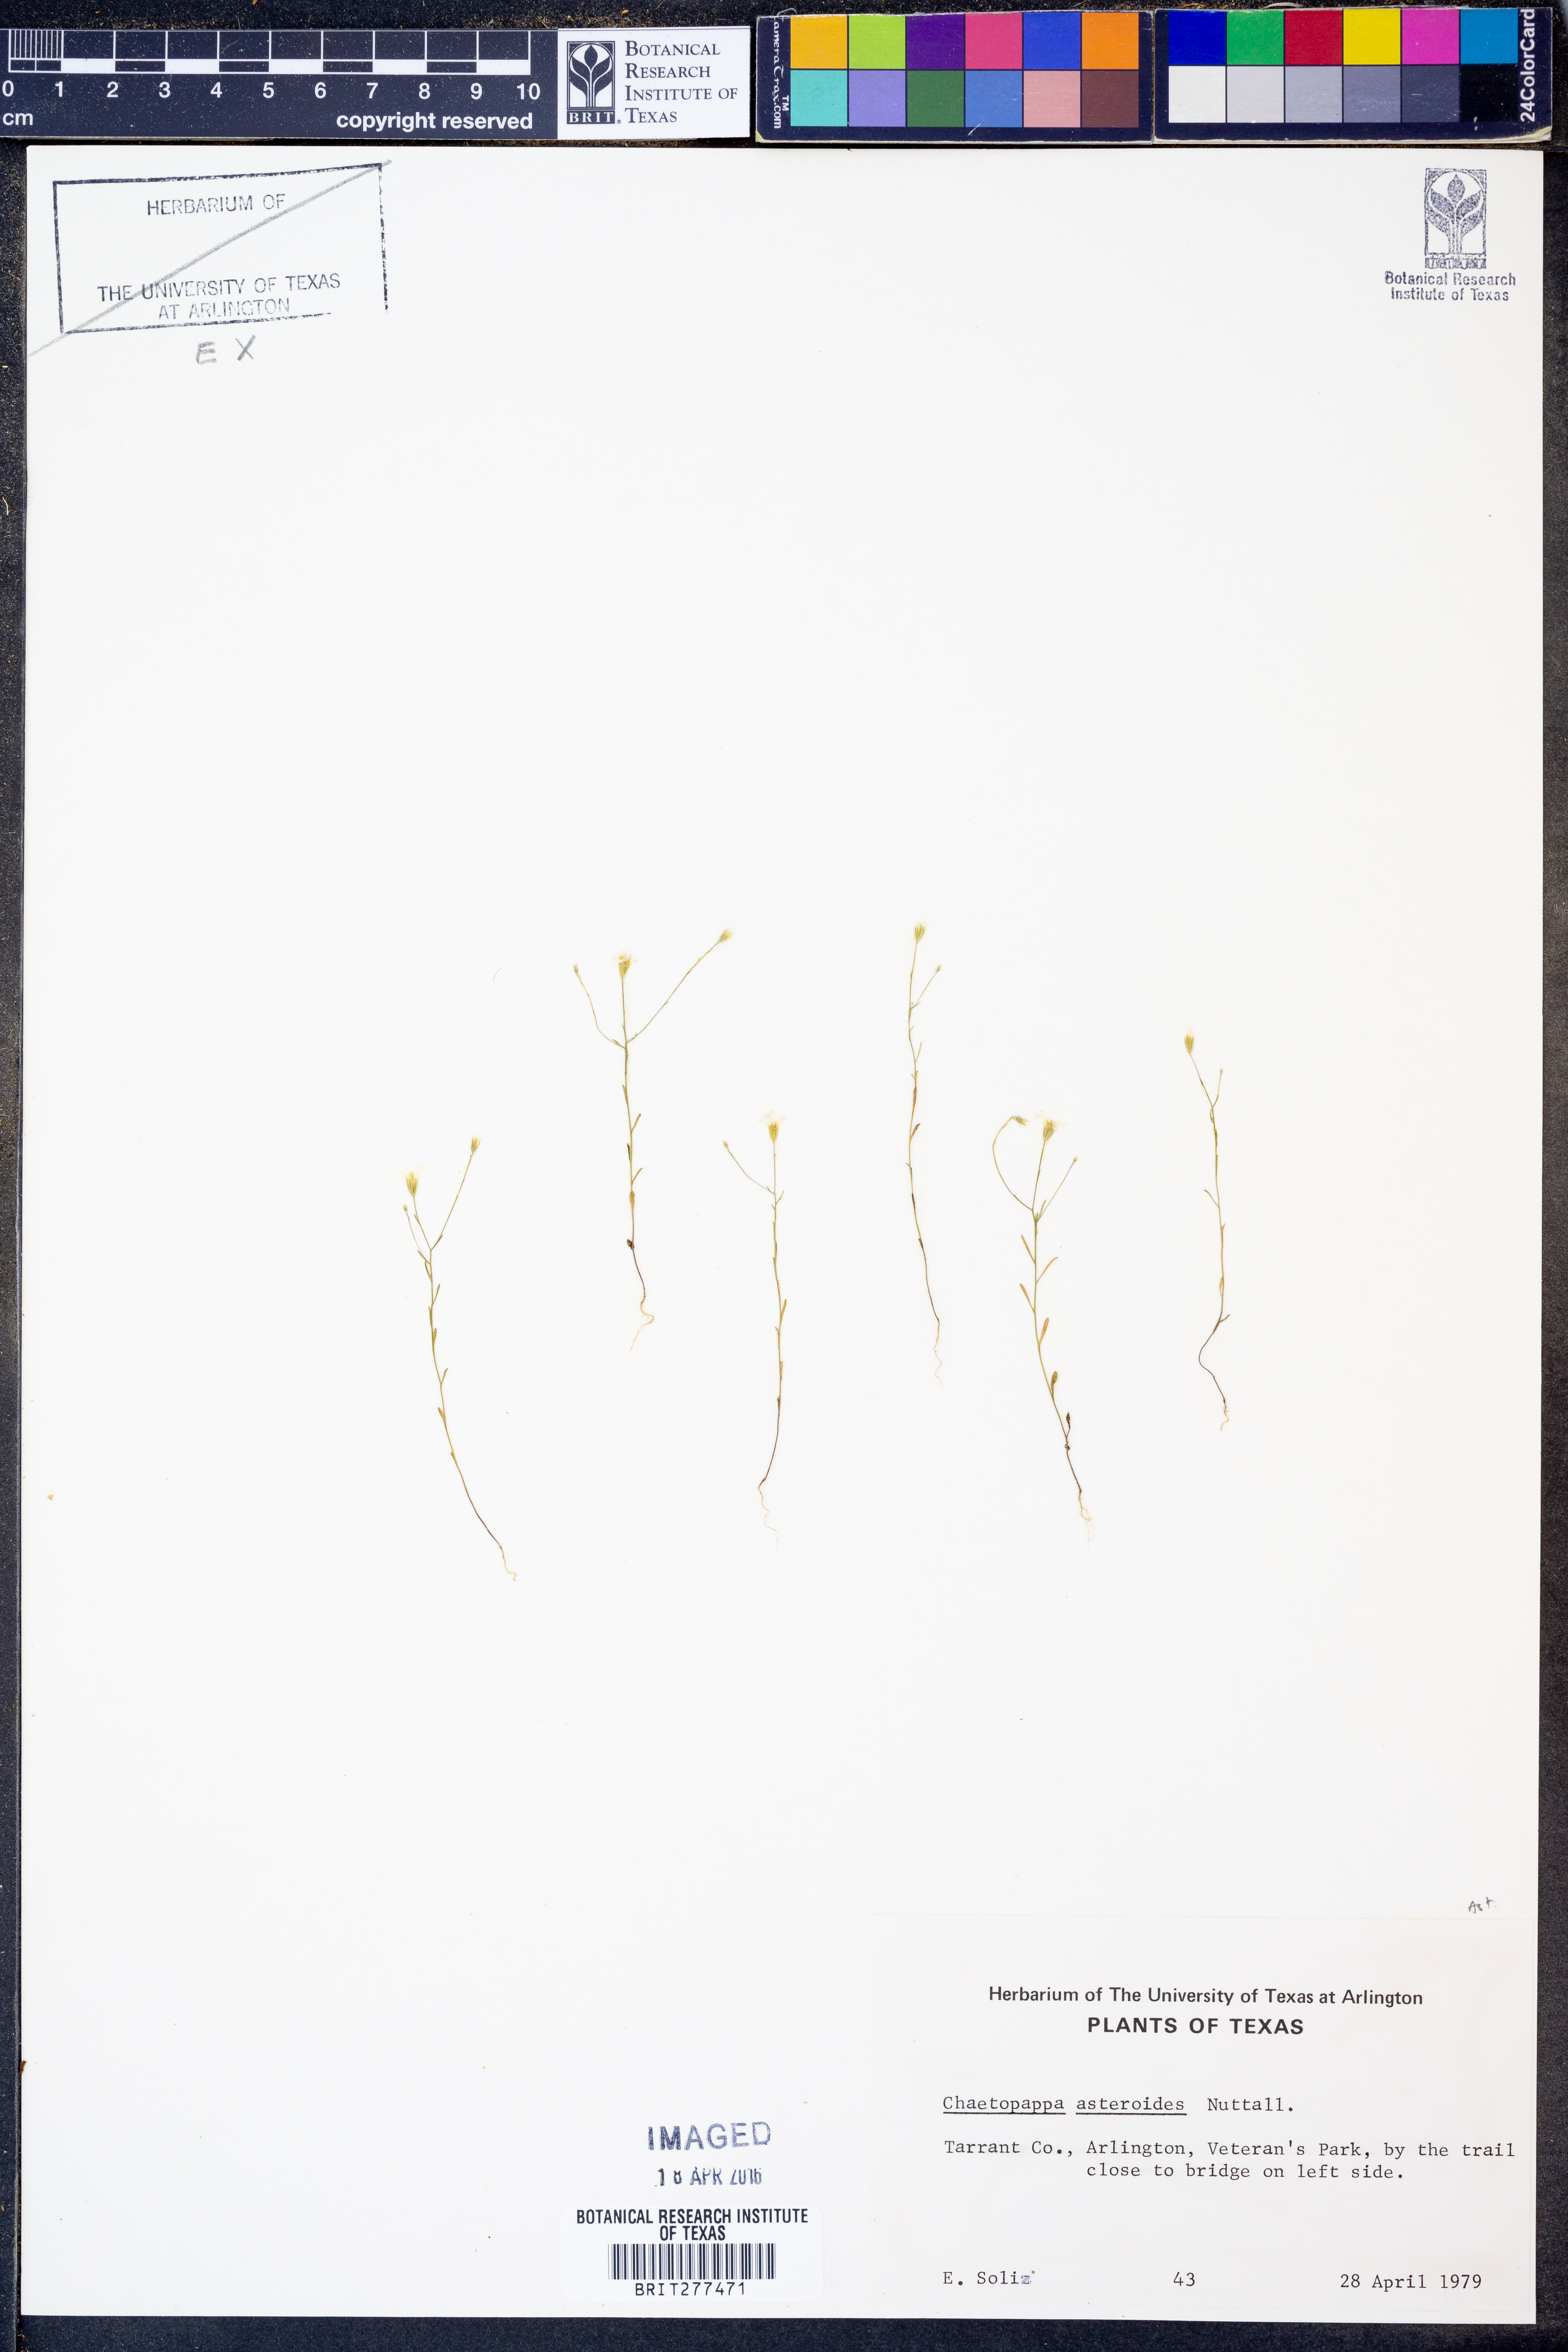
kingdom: Plantae
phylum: Tracheophyta
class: Magnoliopsida
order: Asterales
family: Asteraceae
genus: Chaetopappa
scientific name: Chaetopappa asteroides
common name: Tiny lazy daisy
